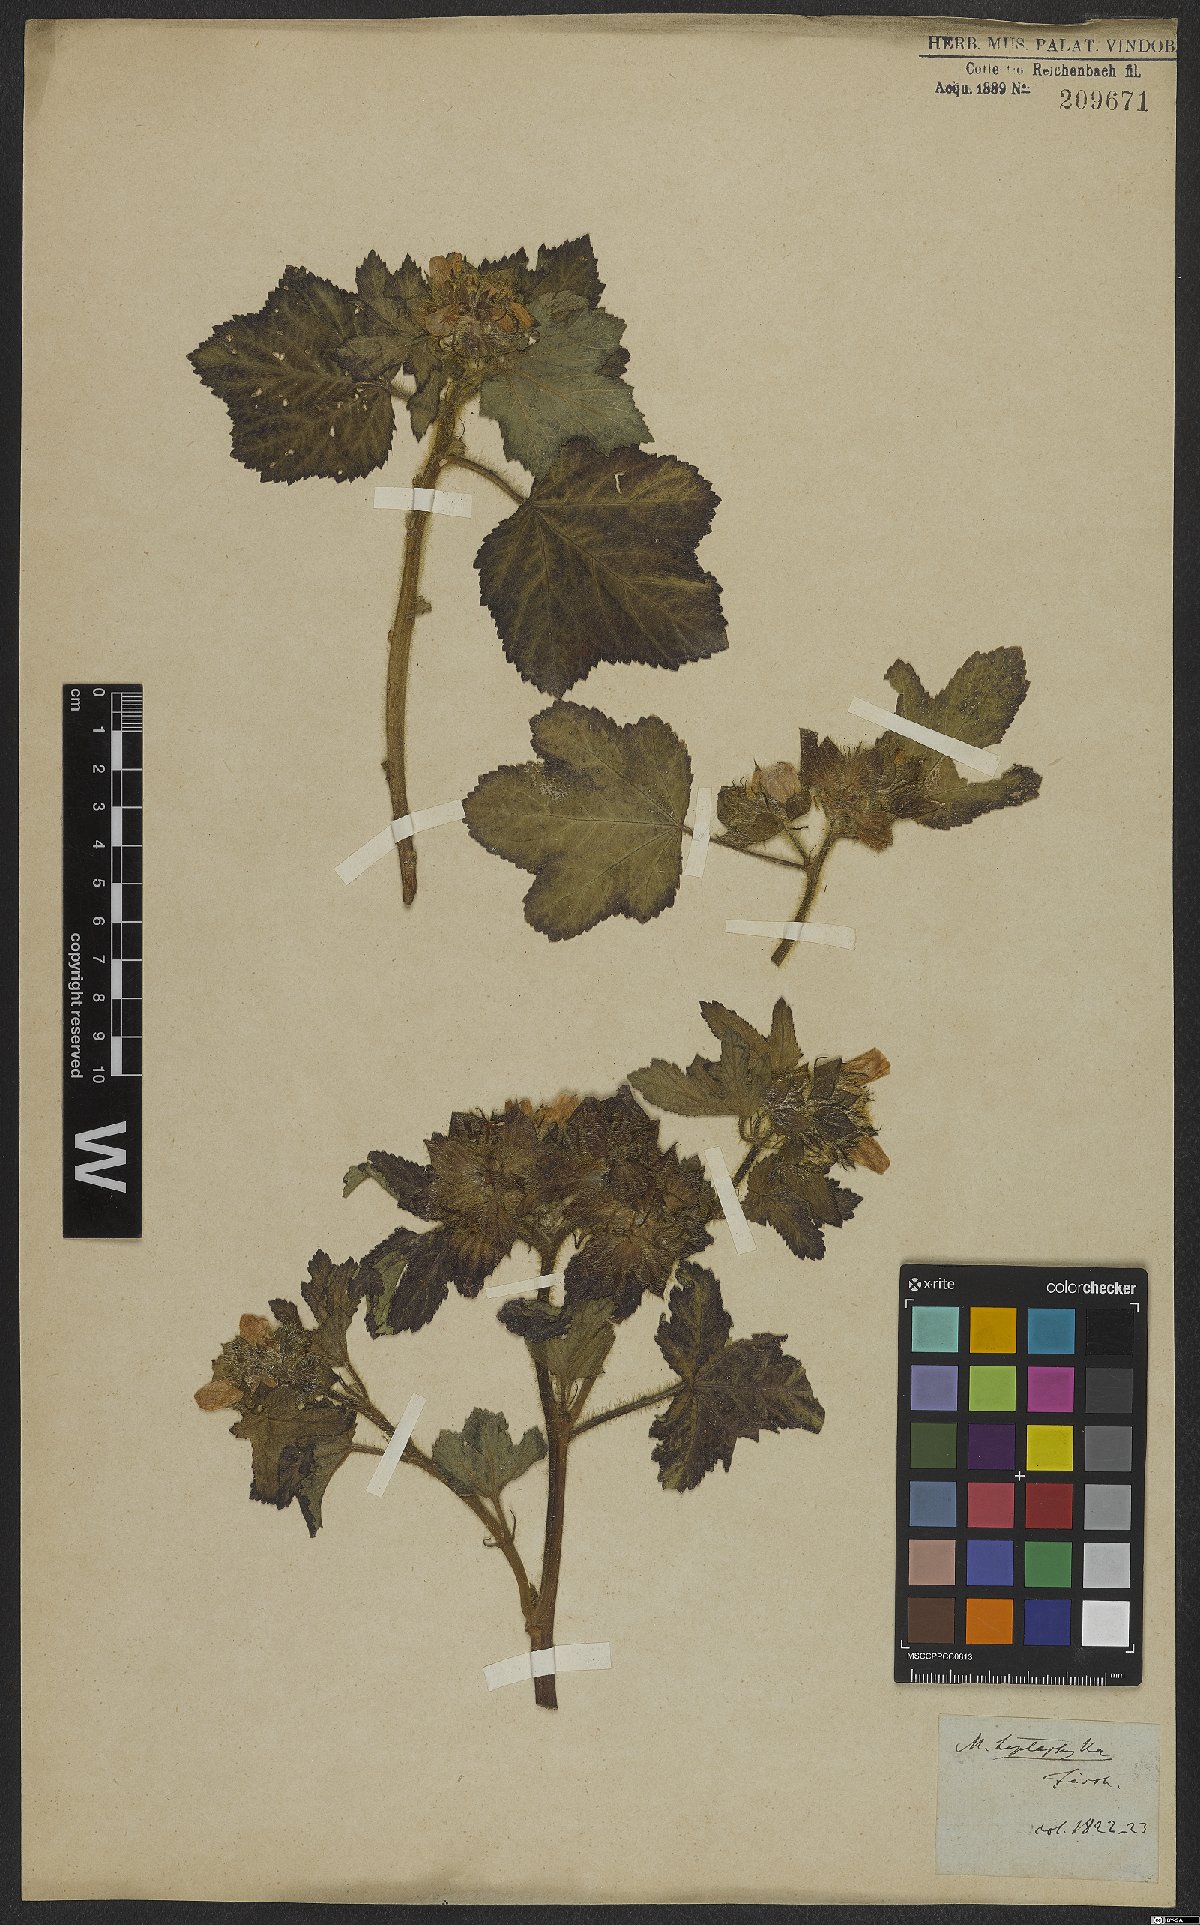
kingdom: Plantae
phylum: Tracheophyta
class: Magnoliopsida
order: Malvales
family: Malvaceae
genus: Malachra
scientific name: Malachra capitata
